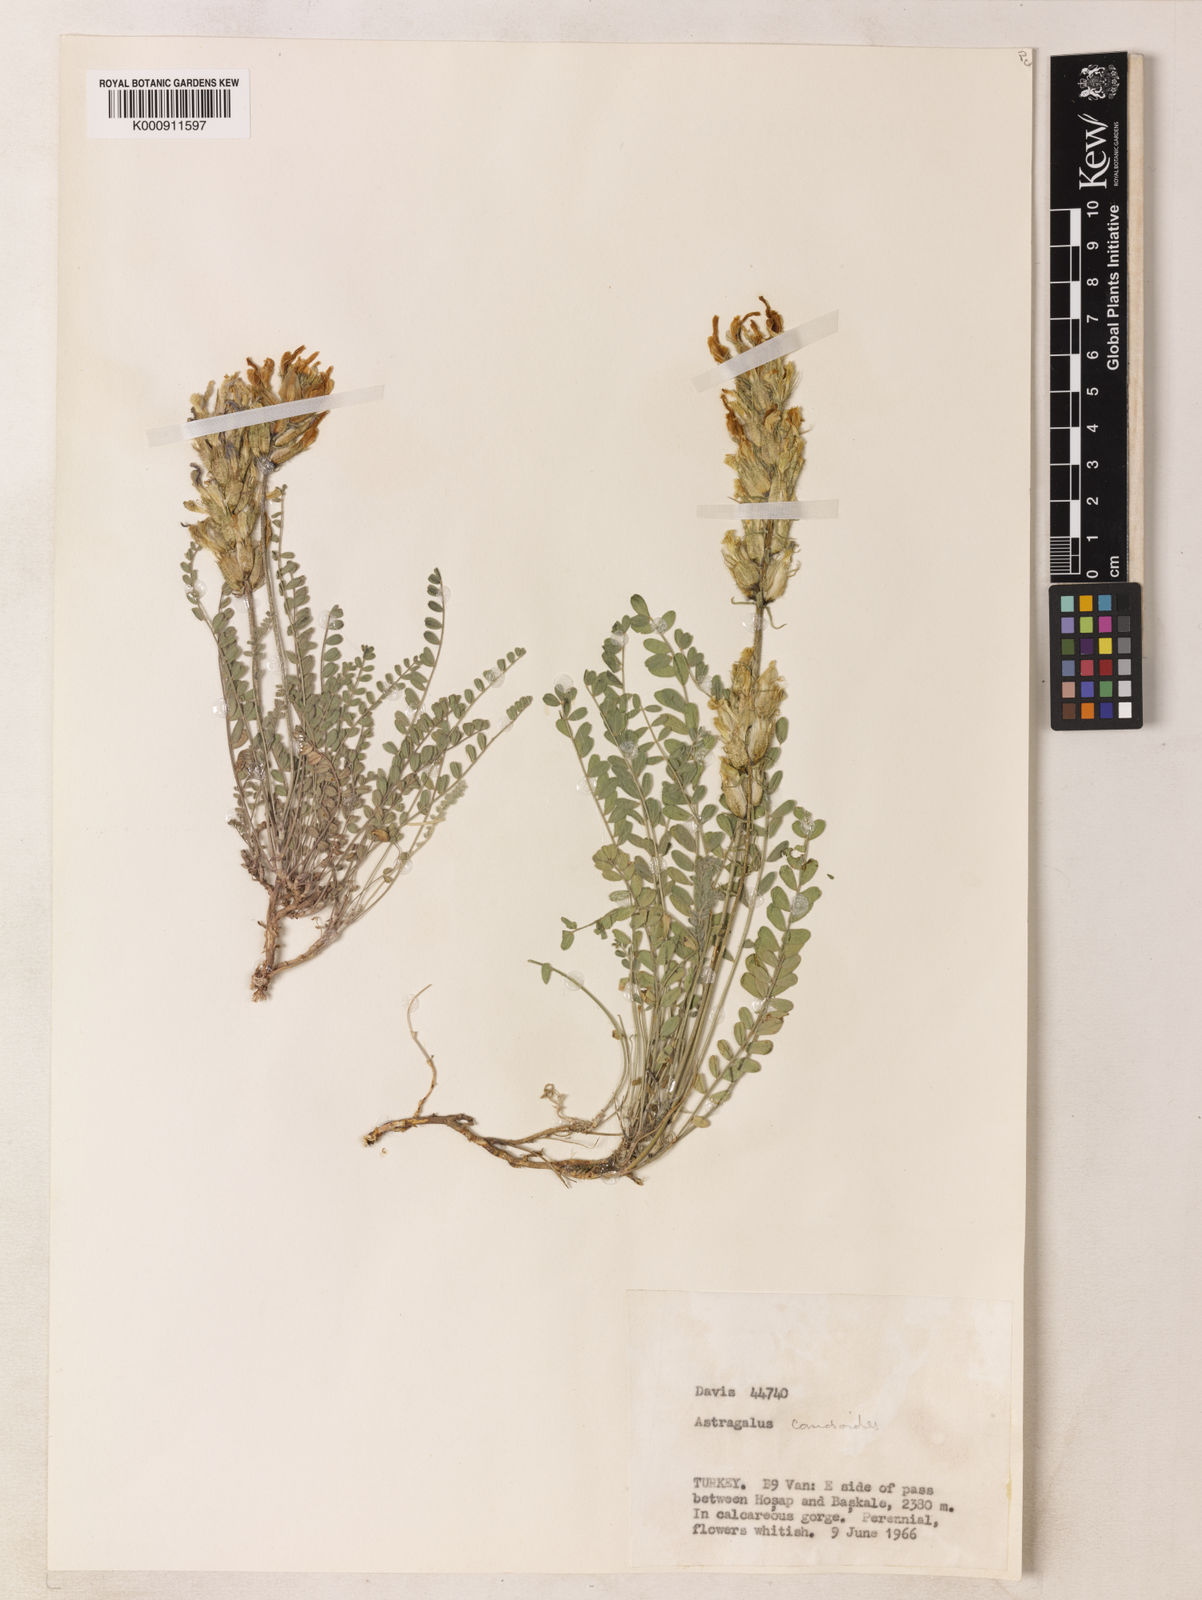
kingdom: Plantae
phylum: Tracheophyta
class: Magnoliopsida
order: Fabales
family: Fabaceae
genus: Astragalus
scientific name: Astragalus comosus
